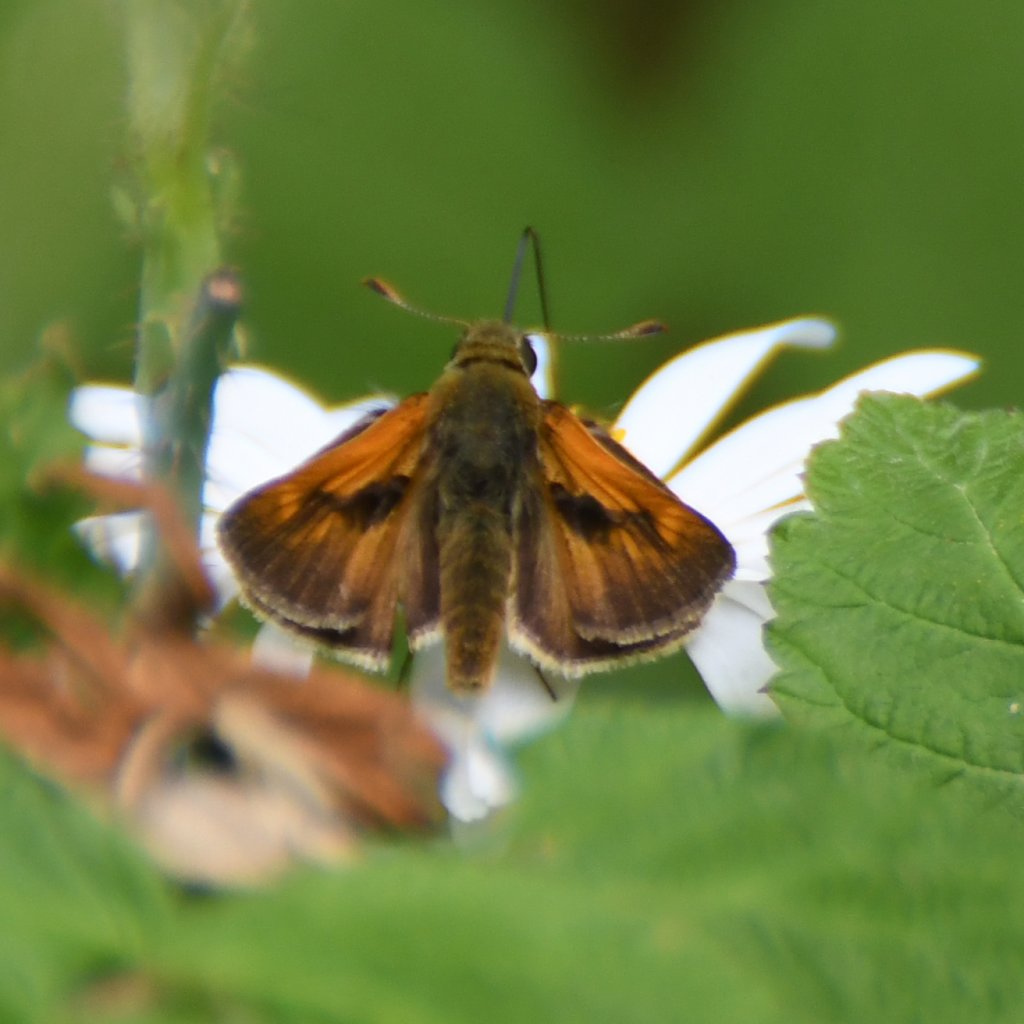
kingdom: Animalia
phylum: Arthropoda
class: Insecta
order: Lepidoptera
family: Hesperiidae
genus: Polites
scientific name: Polites
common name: Long Dash Skipper
